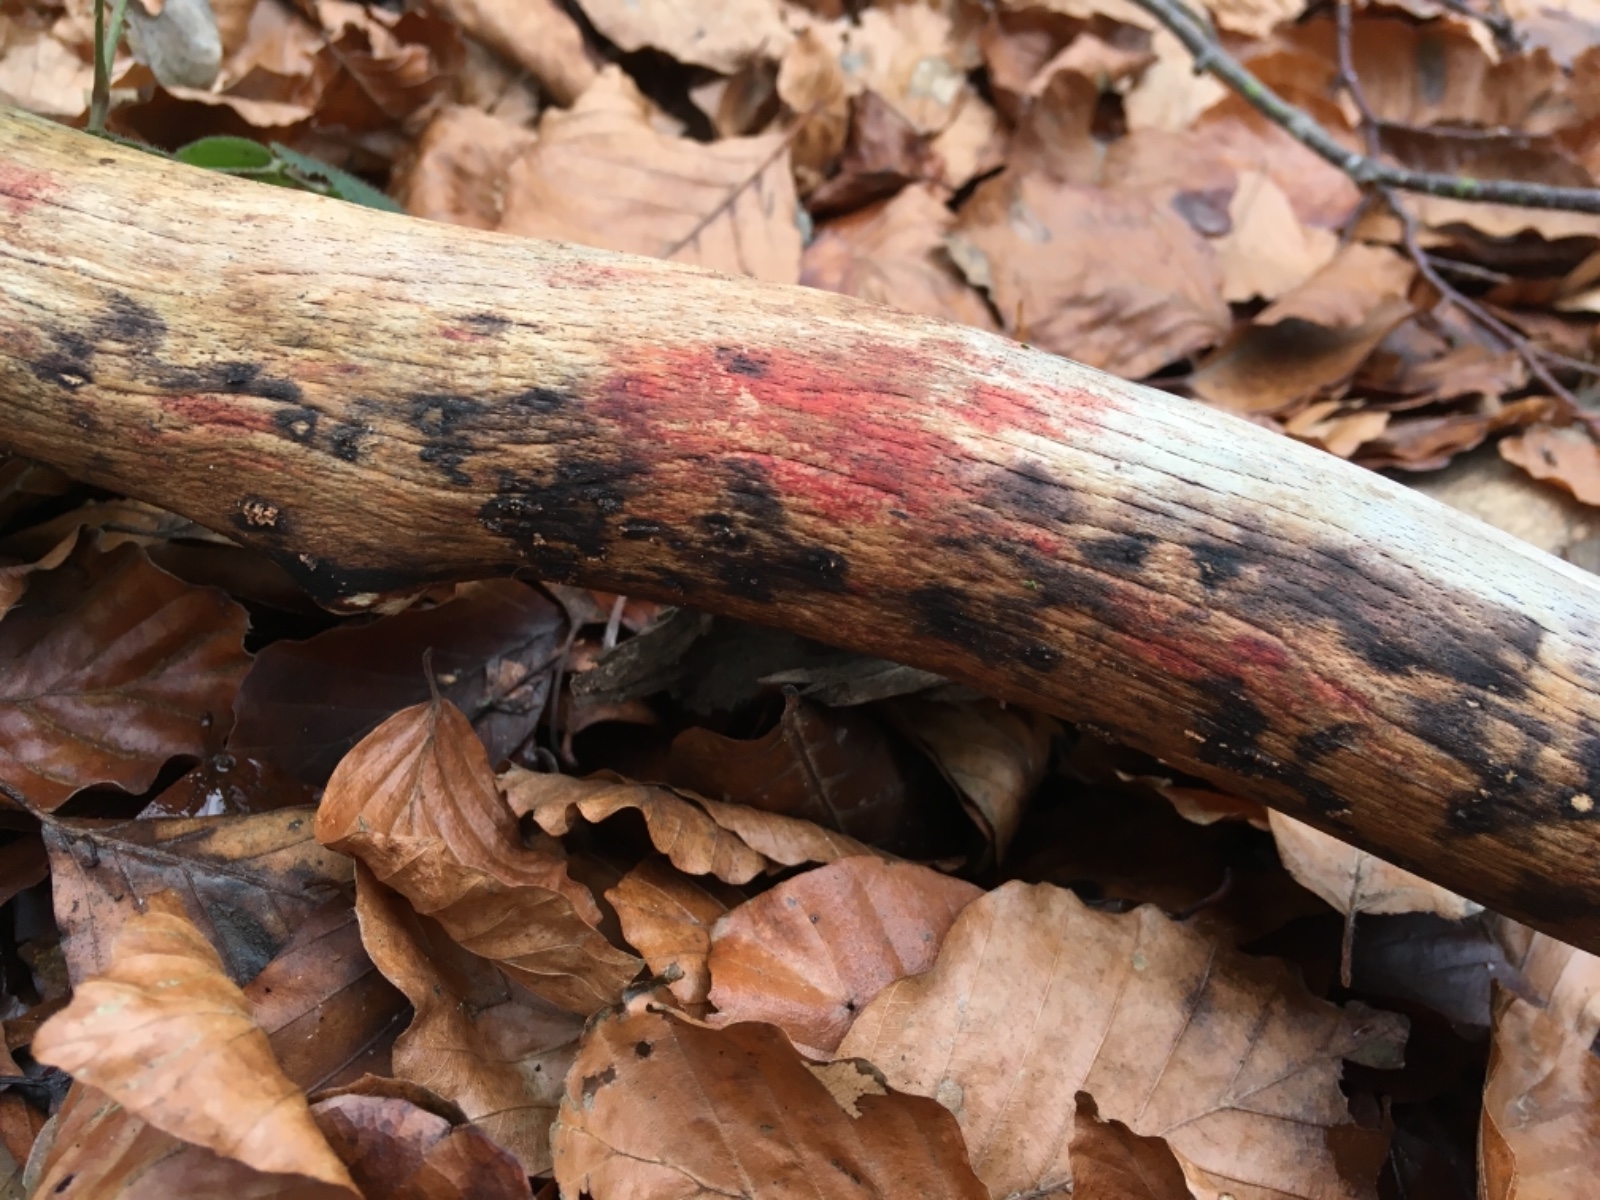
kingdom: Fungi
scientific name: Fungi
